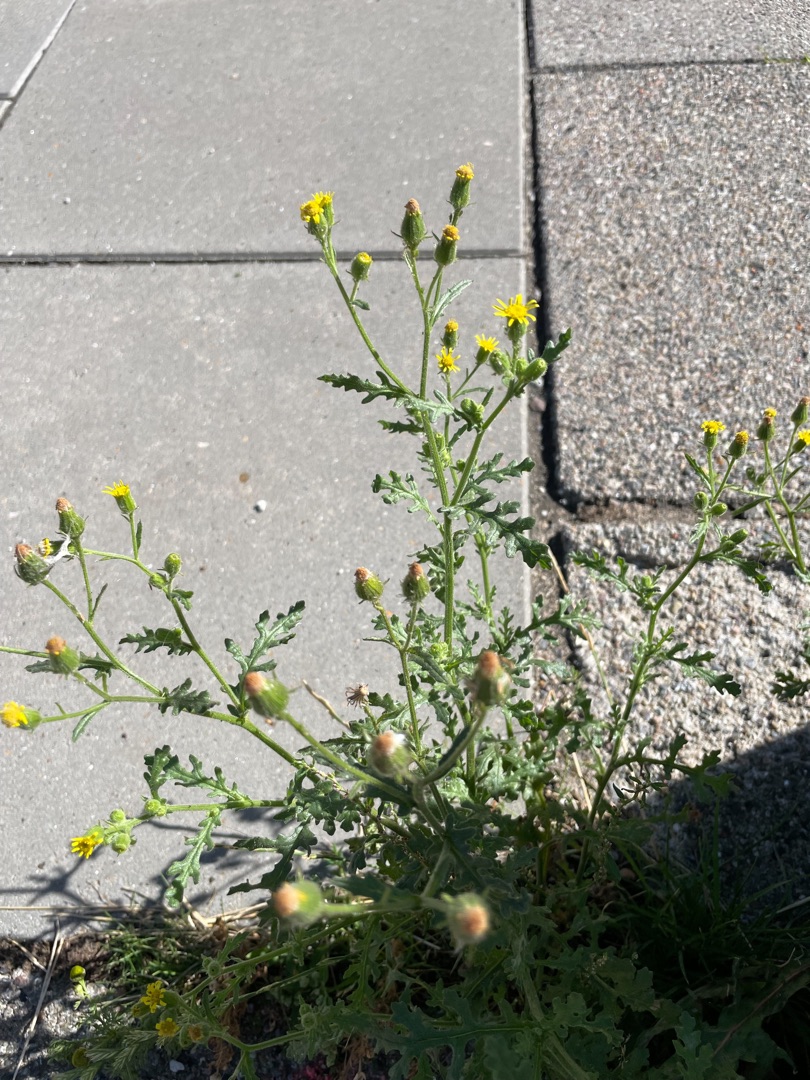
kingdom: Plantae
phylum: Tracheophyta
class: Magnoliopsida
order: Asterales
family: Asteraceae
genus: Senecio
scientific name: Senecio viscosus
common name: Klæbrig brandbæger
